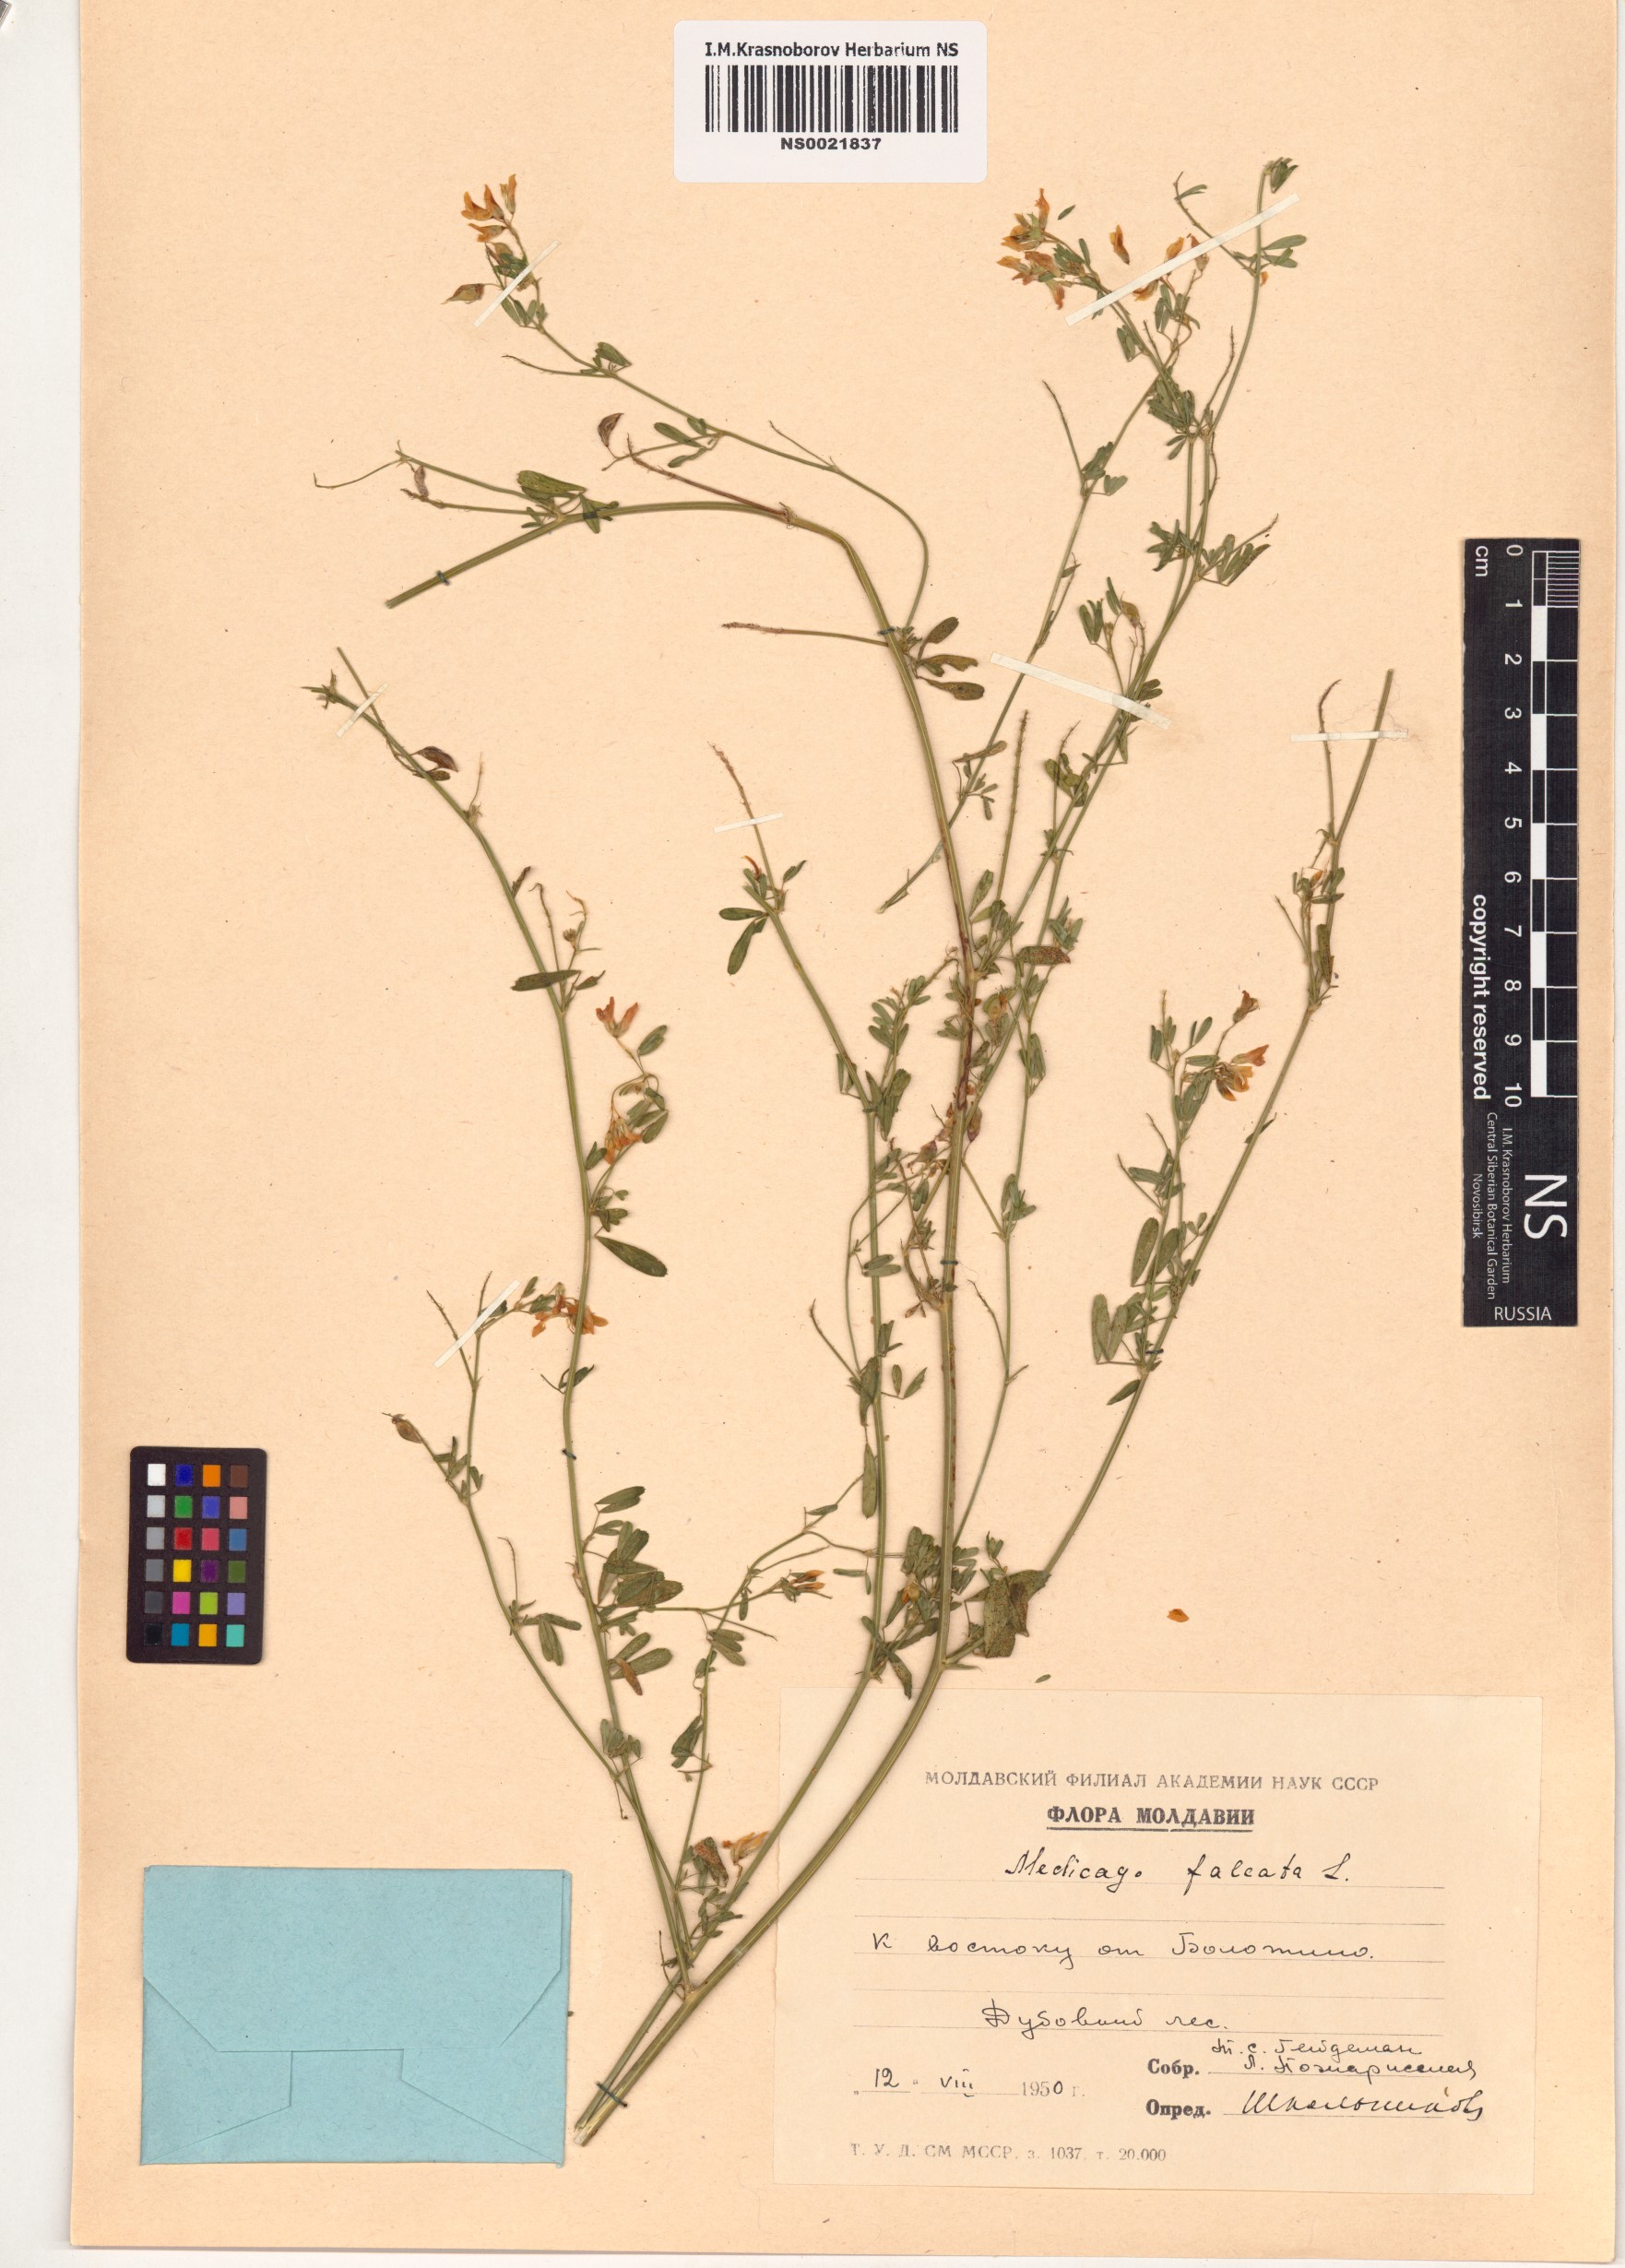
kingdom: Plantae
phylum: Tracheophyta
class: Magnoliopsida
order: Fabales
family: Fabaceae
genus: Medicago
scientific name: Medicago falcata
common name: Sickle medick
